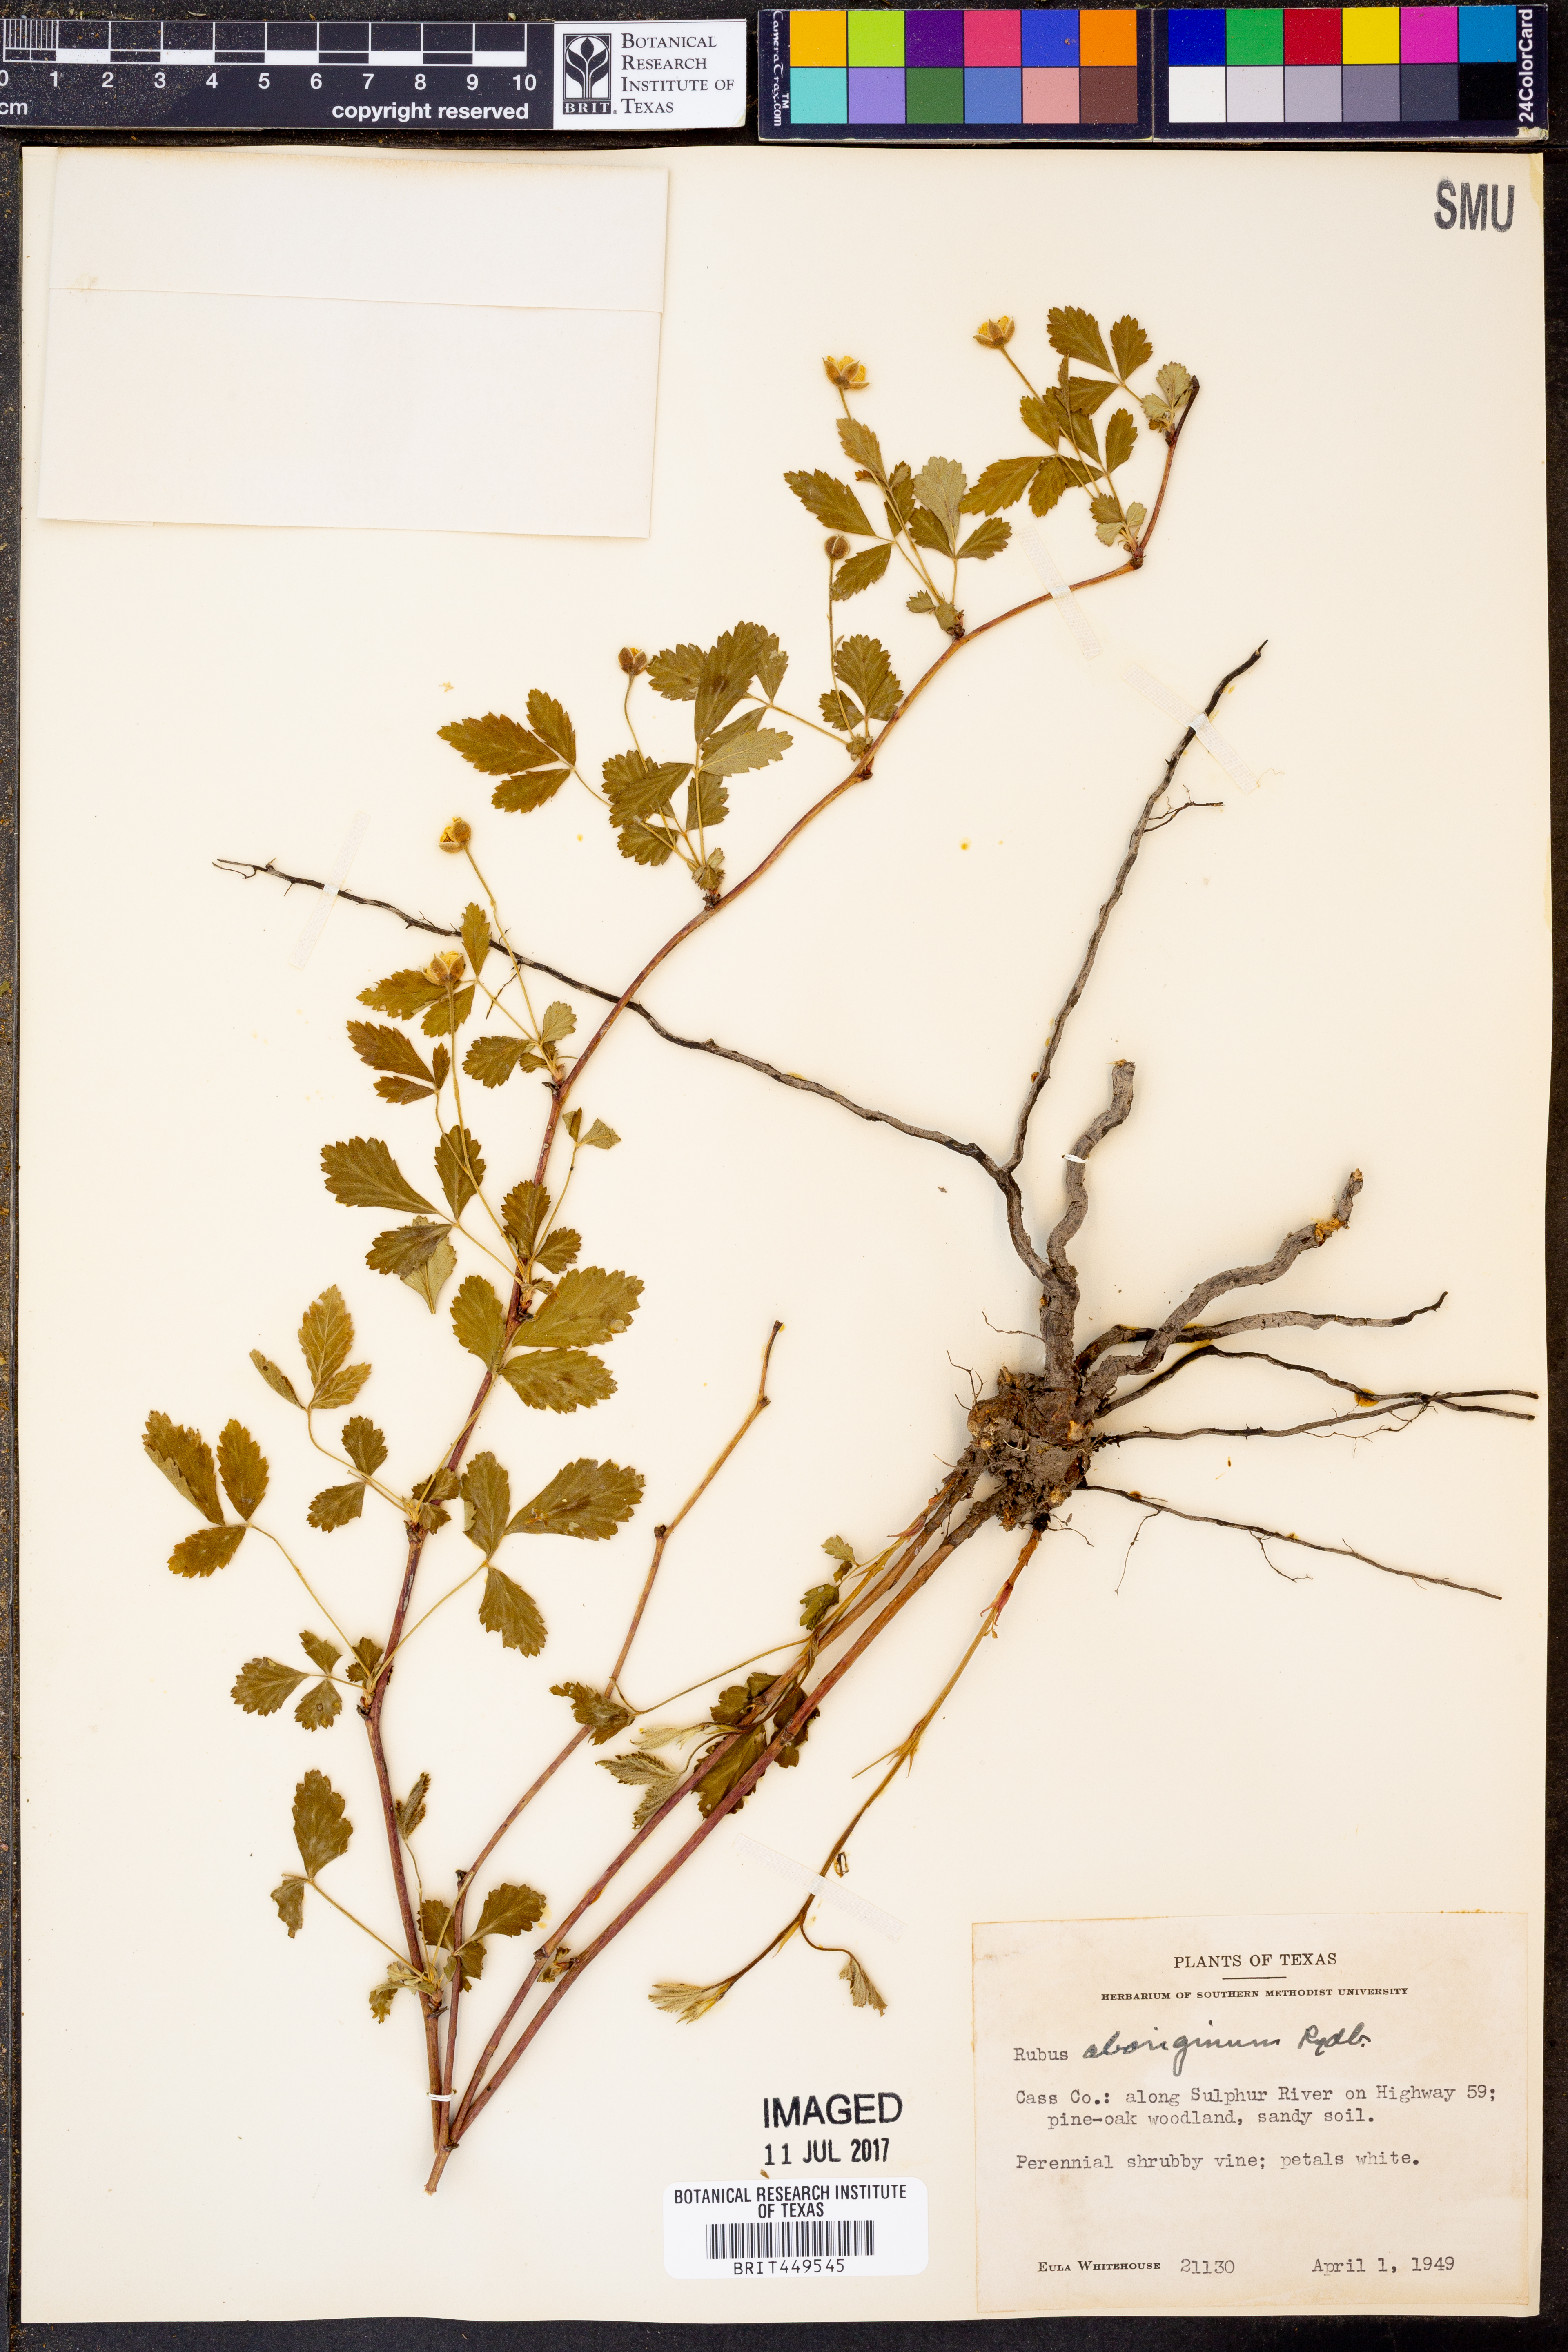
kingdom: Plantae
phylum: Tracheophyta
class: Magnoliopsida
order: Rosales
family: Rosaceae
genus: Rubus
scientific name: Rubus aboriginum
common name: Mayes dewberry
